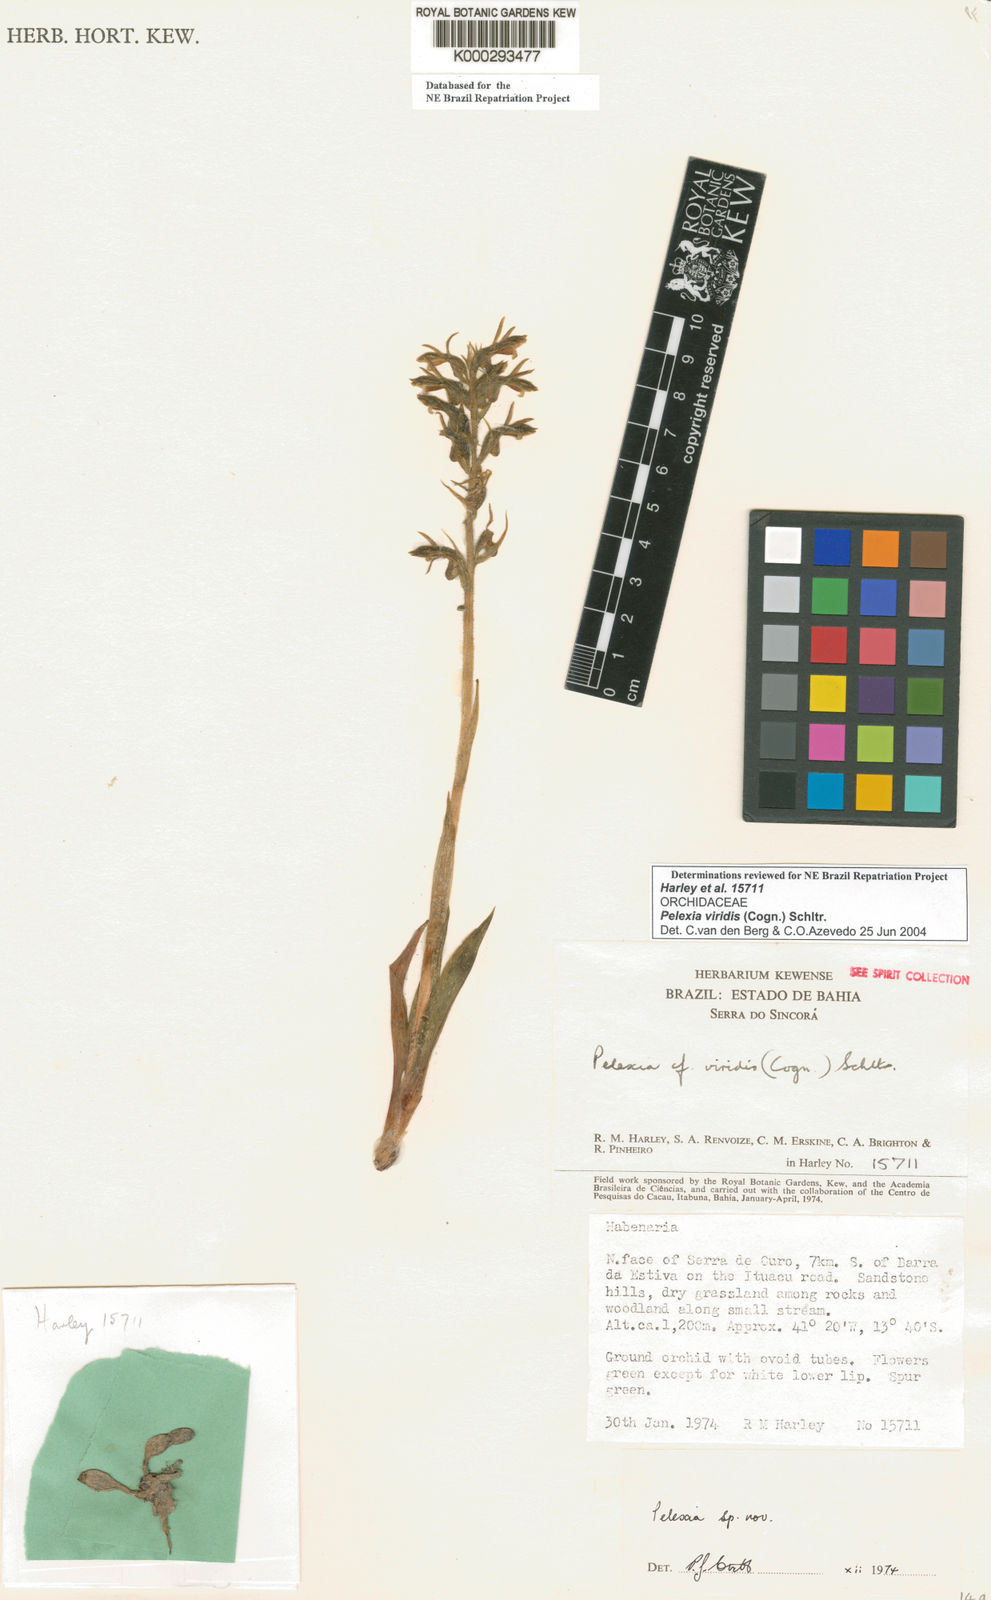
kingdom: Plantae
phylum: Tracheophyta
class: Liliopsida
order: Asparagales
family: Orchidaceae
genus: Pelexia
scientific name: Pelexia viridis
